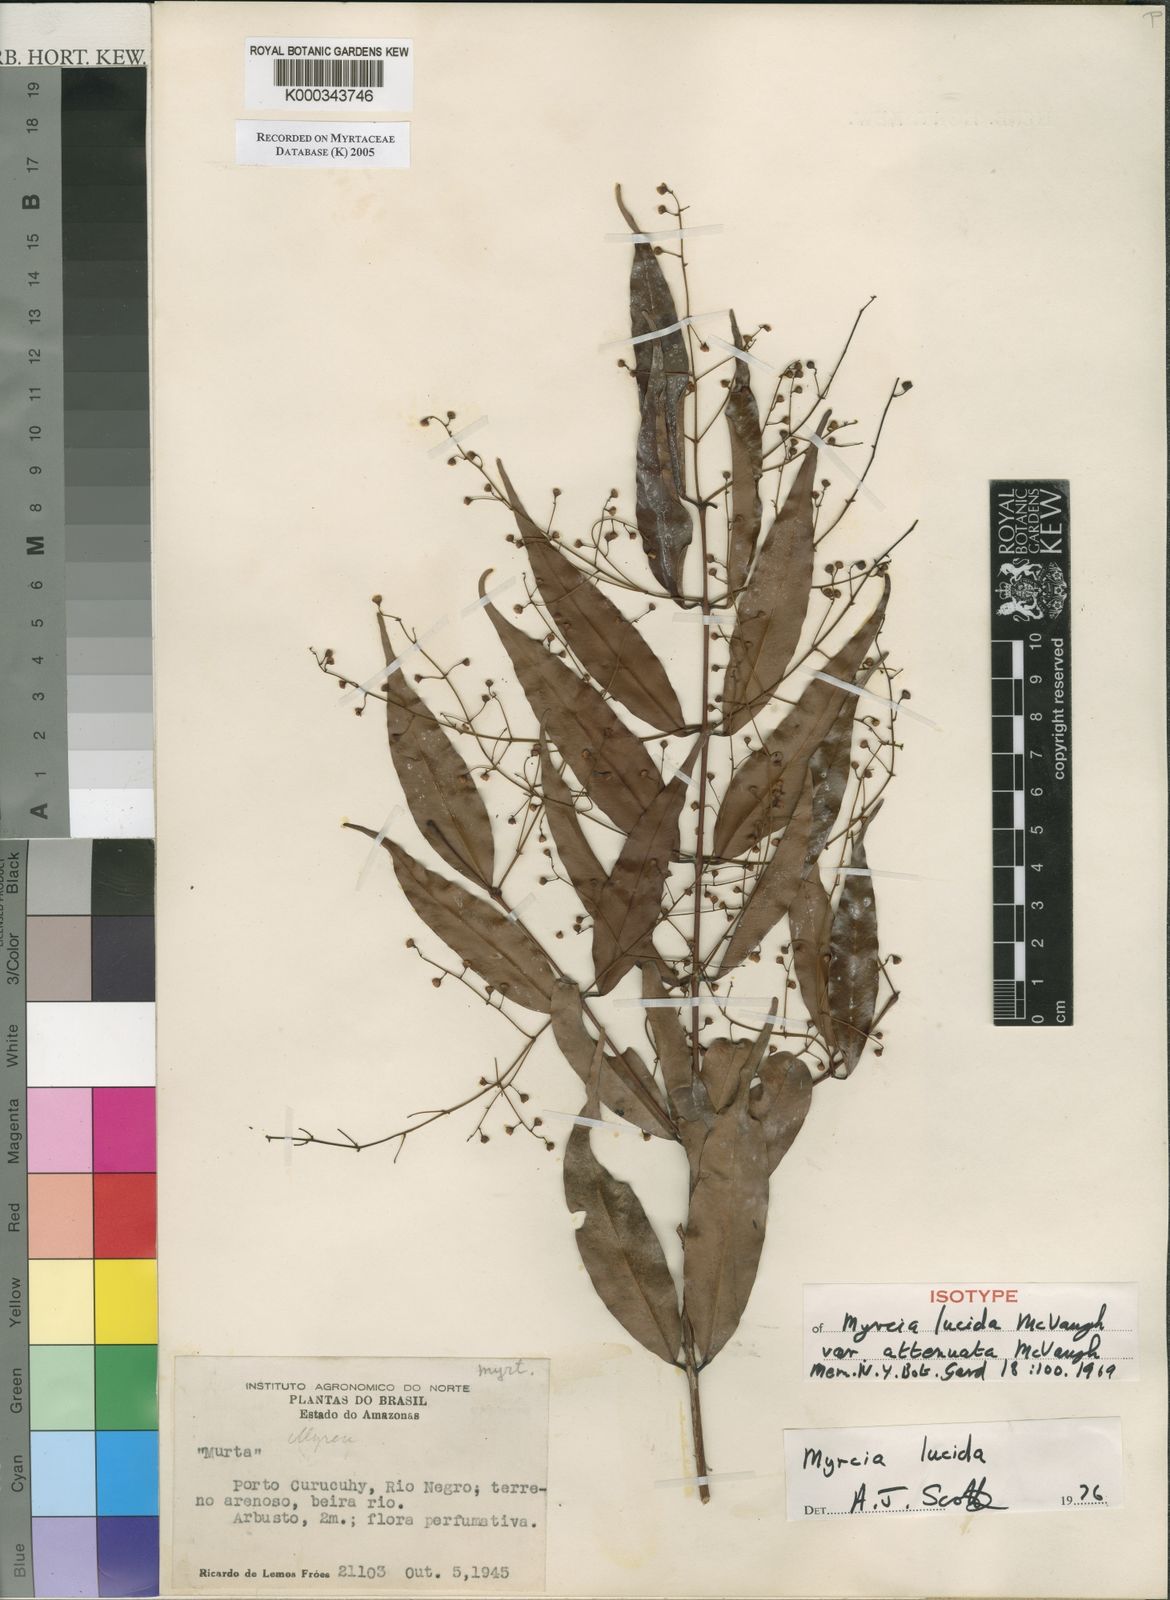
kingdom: Plantae
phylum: Tracheophyta
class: Magnoliopsida
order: Myrtales
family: Myrtaceae
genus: Myrcia
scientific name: Myrcia inaequiloba
